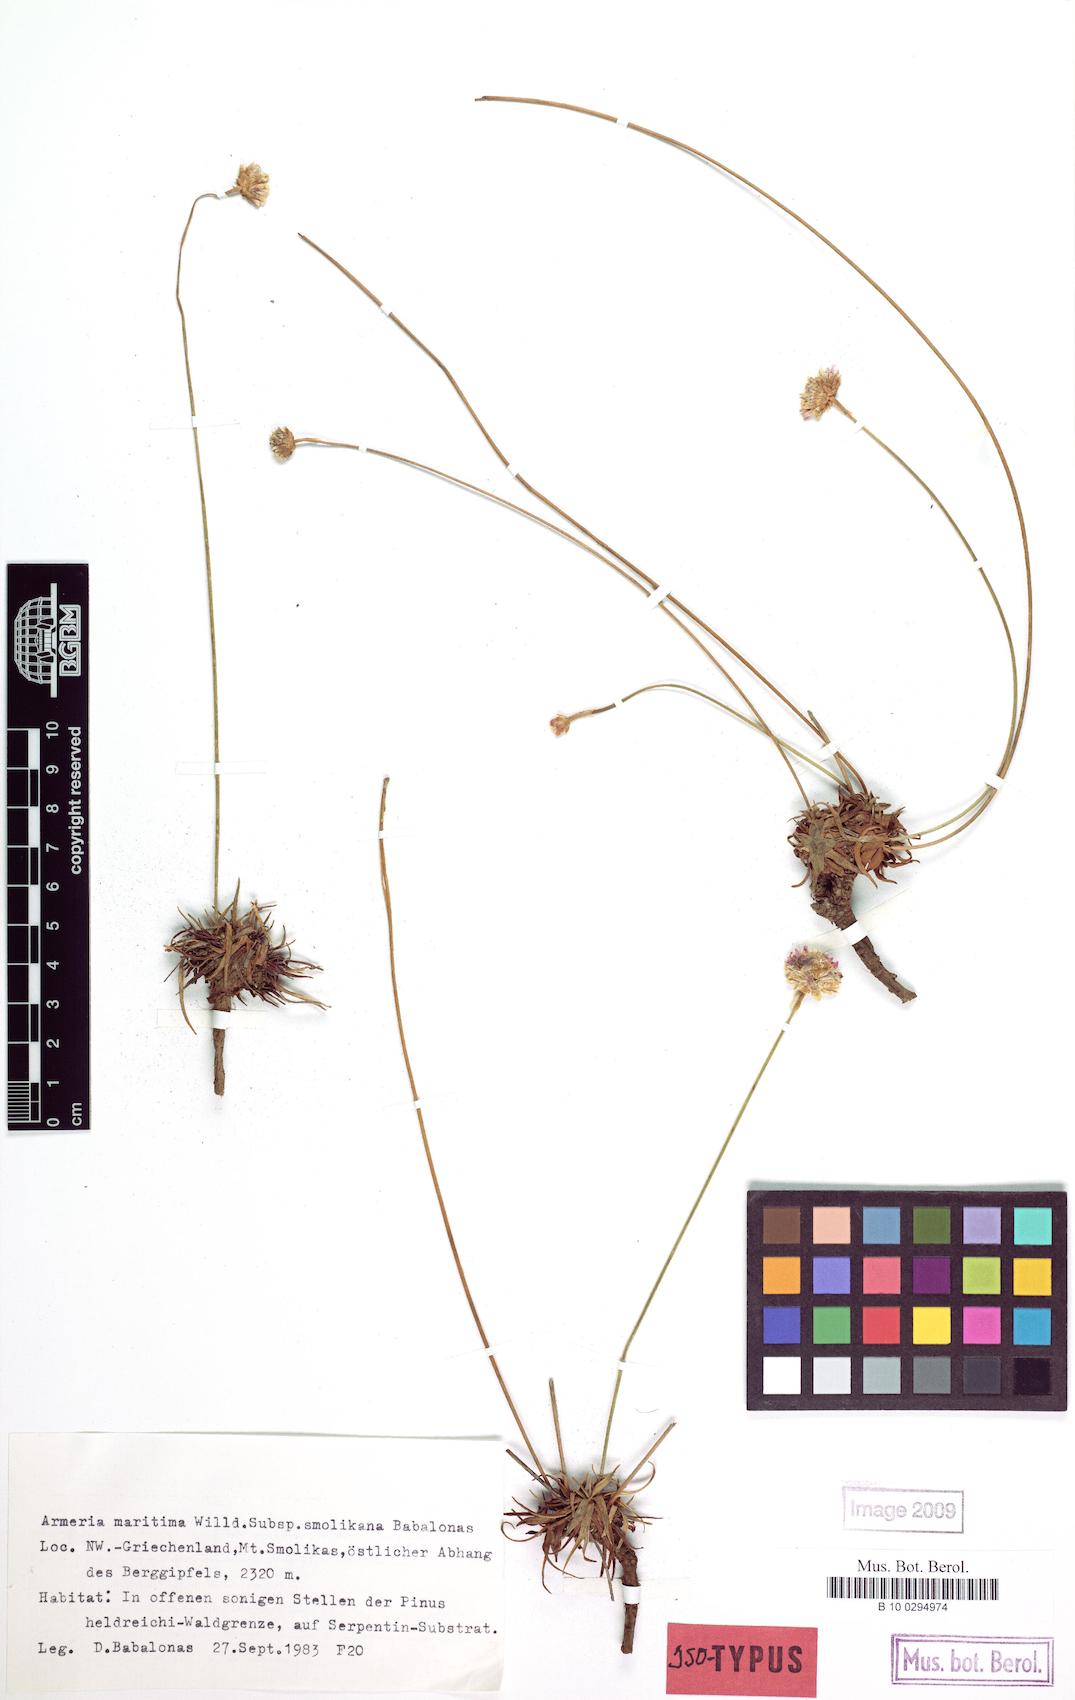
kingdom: Plantae
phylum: Tracheophyta
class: Magnoliopsida
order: Caryophyllales
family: Plumbaginaceae
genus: Armeria
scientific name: Armeria maritima
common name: Thrift
